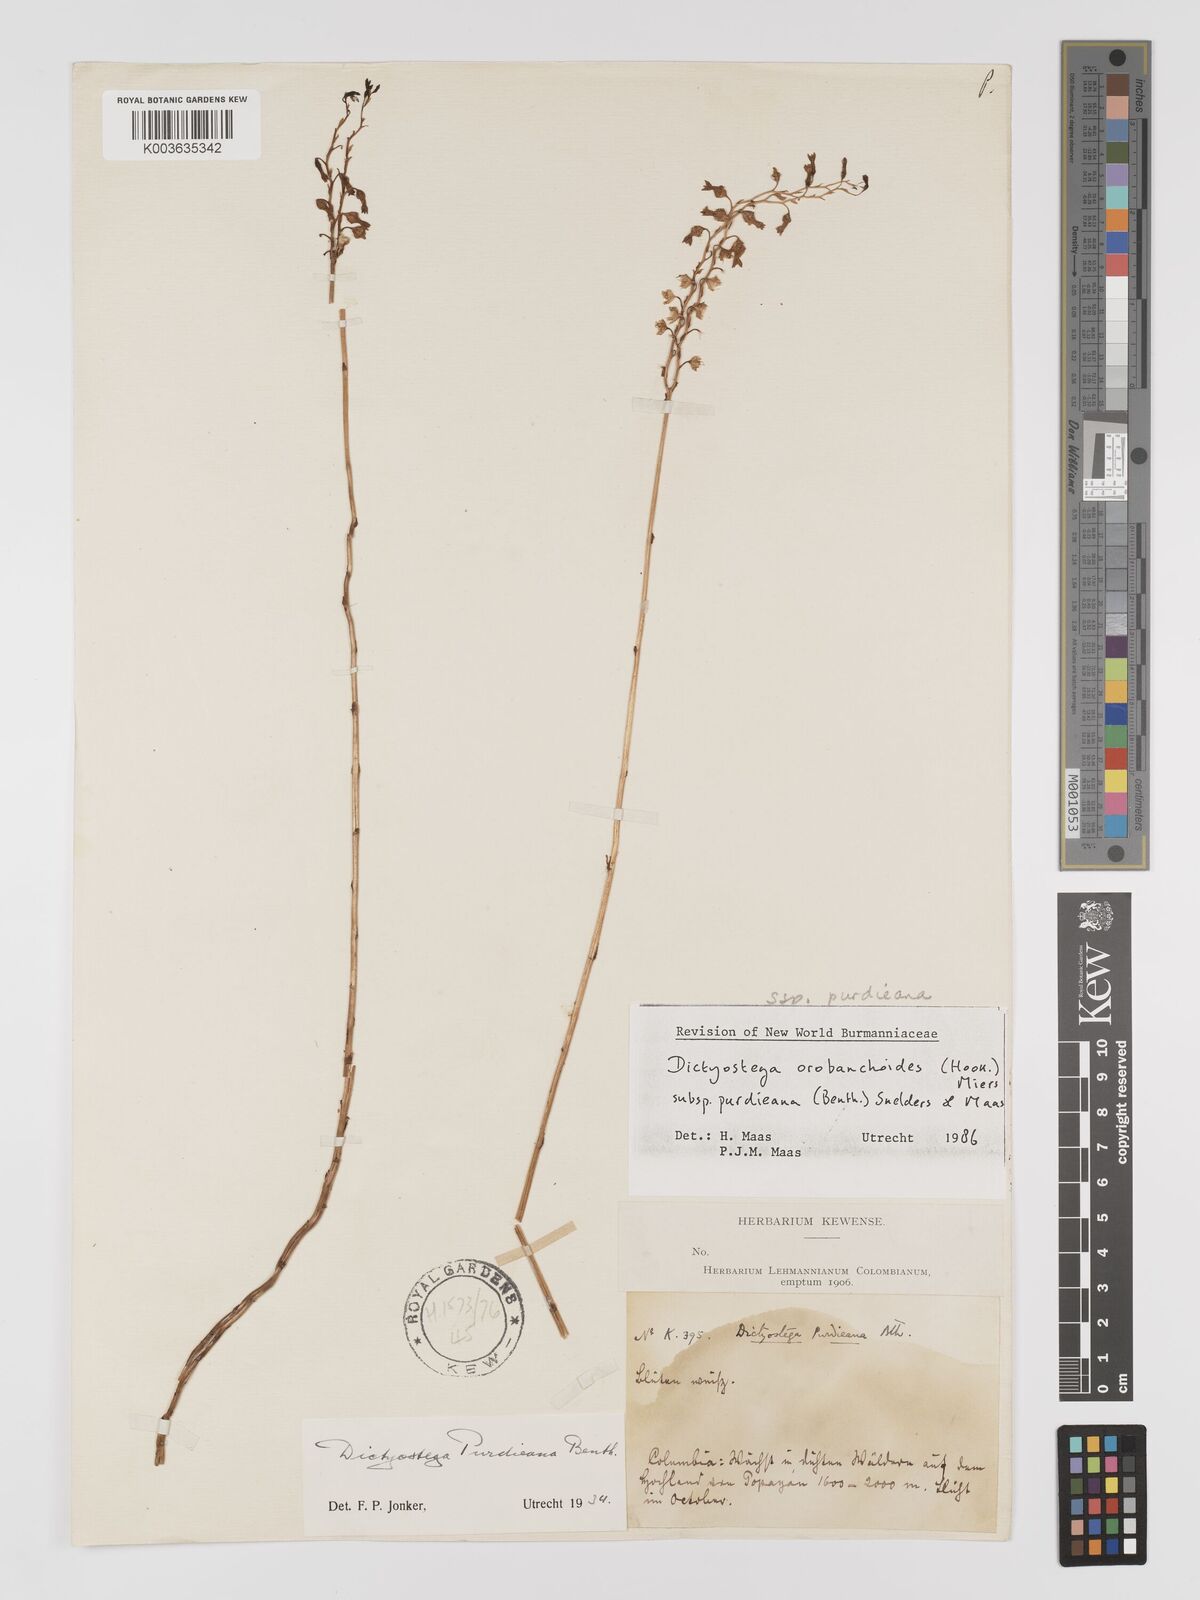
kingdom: Plantae
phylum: Tracheophyta
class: Liliopsida
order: Dioscoreales
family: Burmanniaceae
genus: Dictyostega
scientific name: Dictyostega orobanchoides
